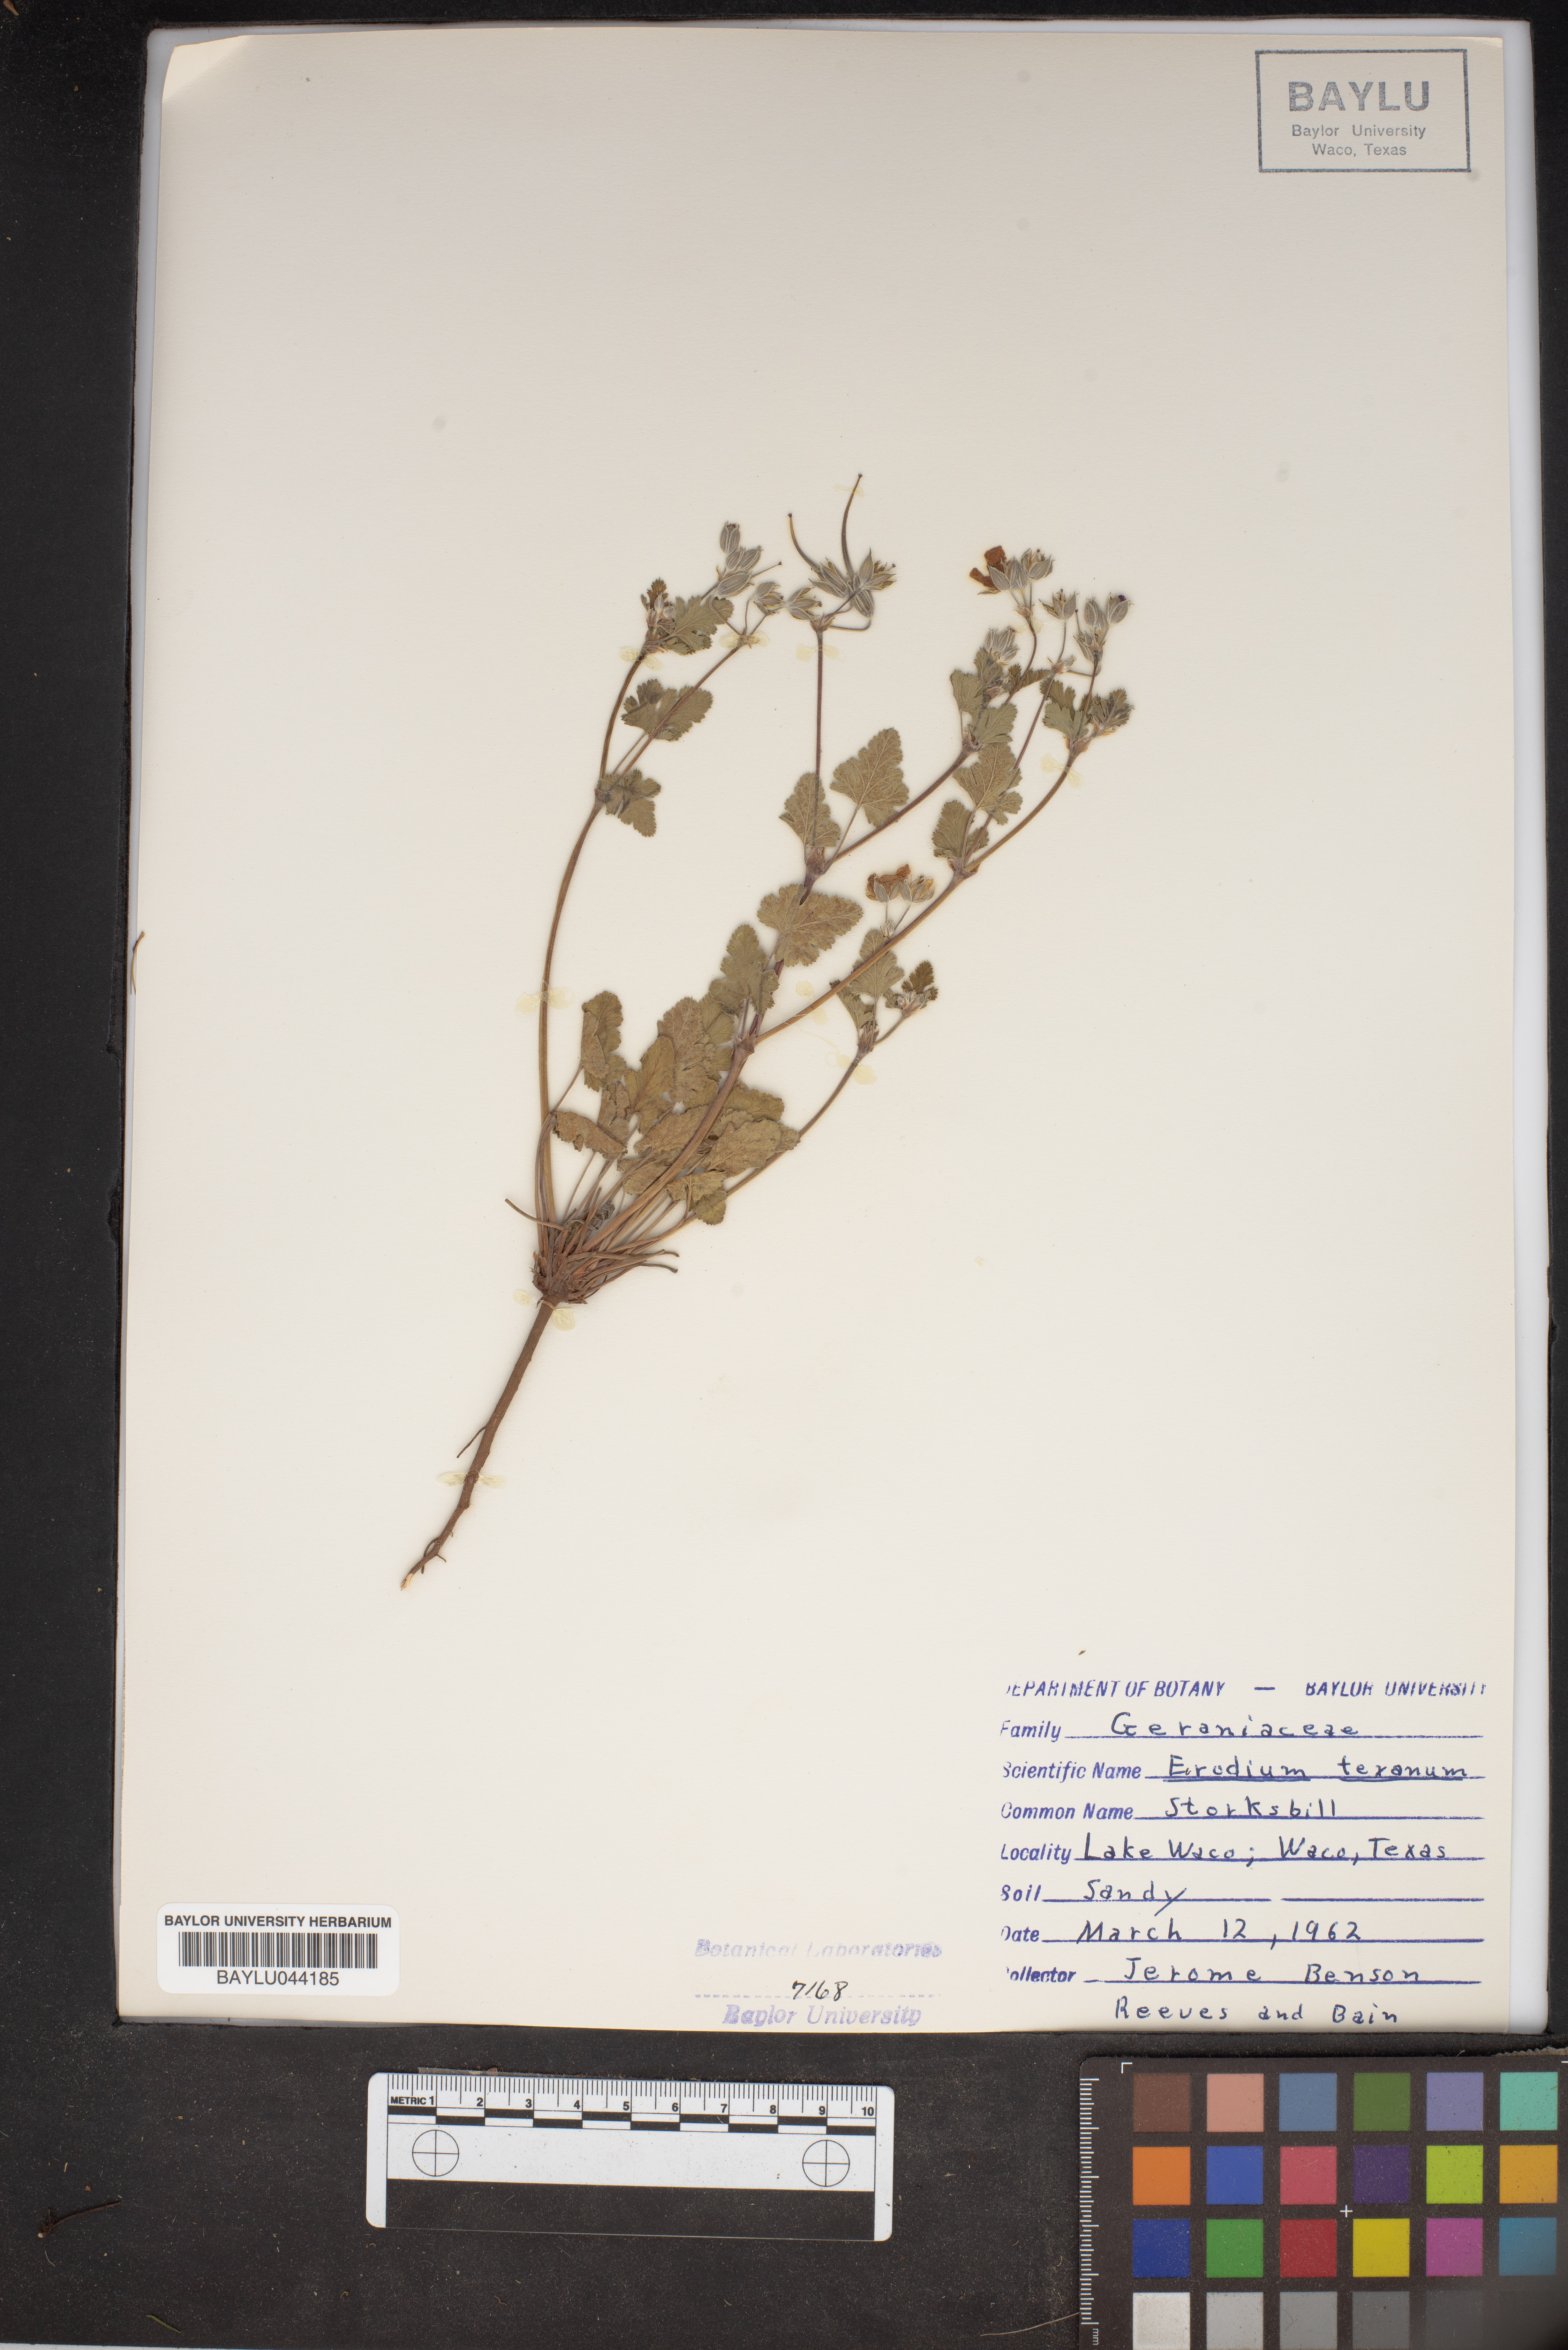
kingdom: Plantae
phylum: Tracheophyta
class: Magnoliopsida
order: Geraniales
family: Geraniaceae
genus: Erodium
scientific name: Erodium texanum
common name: Texas stork's-bill
